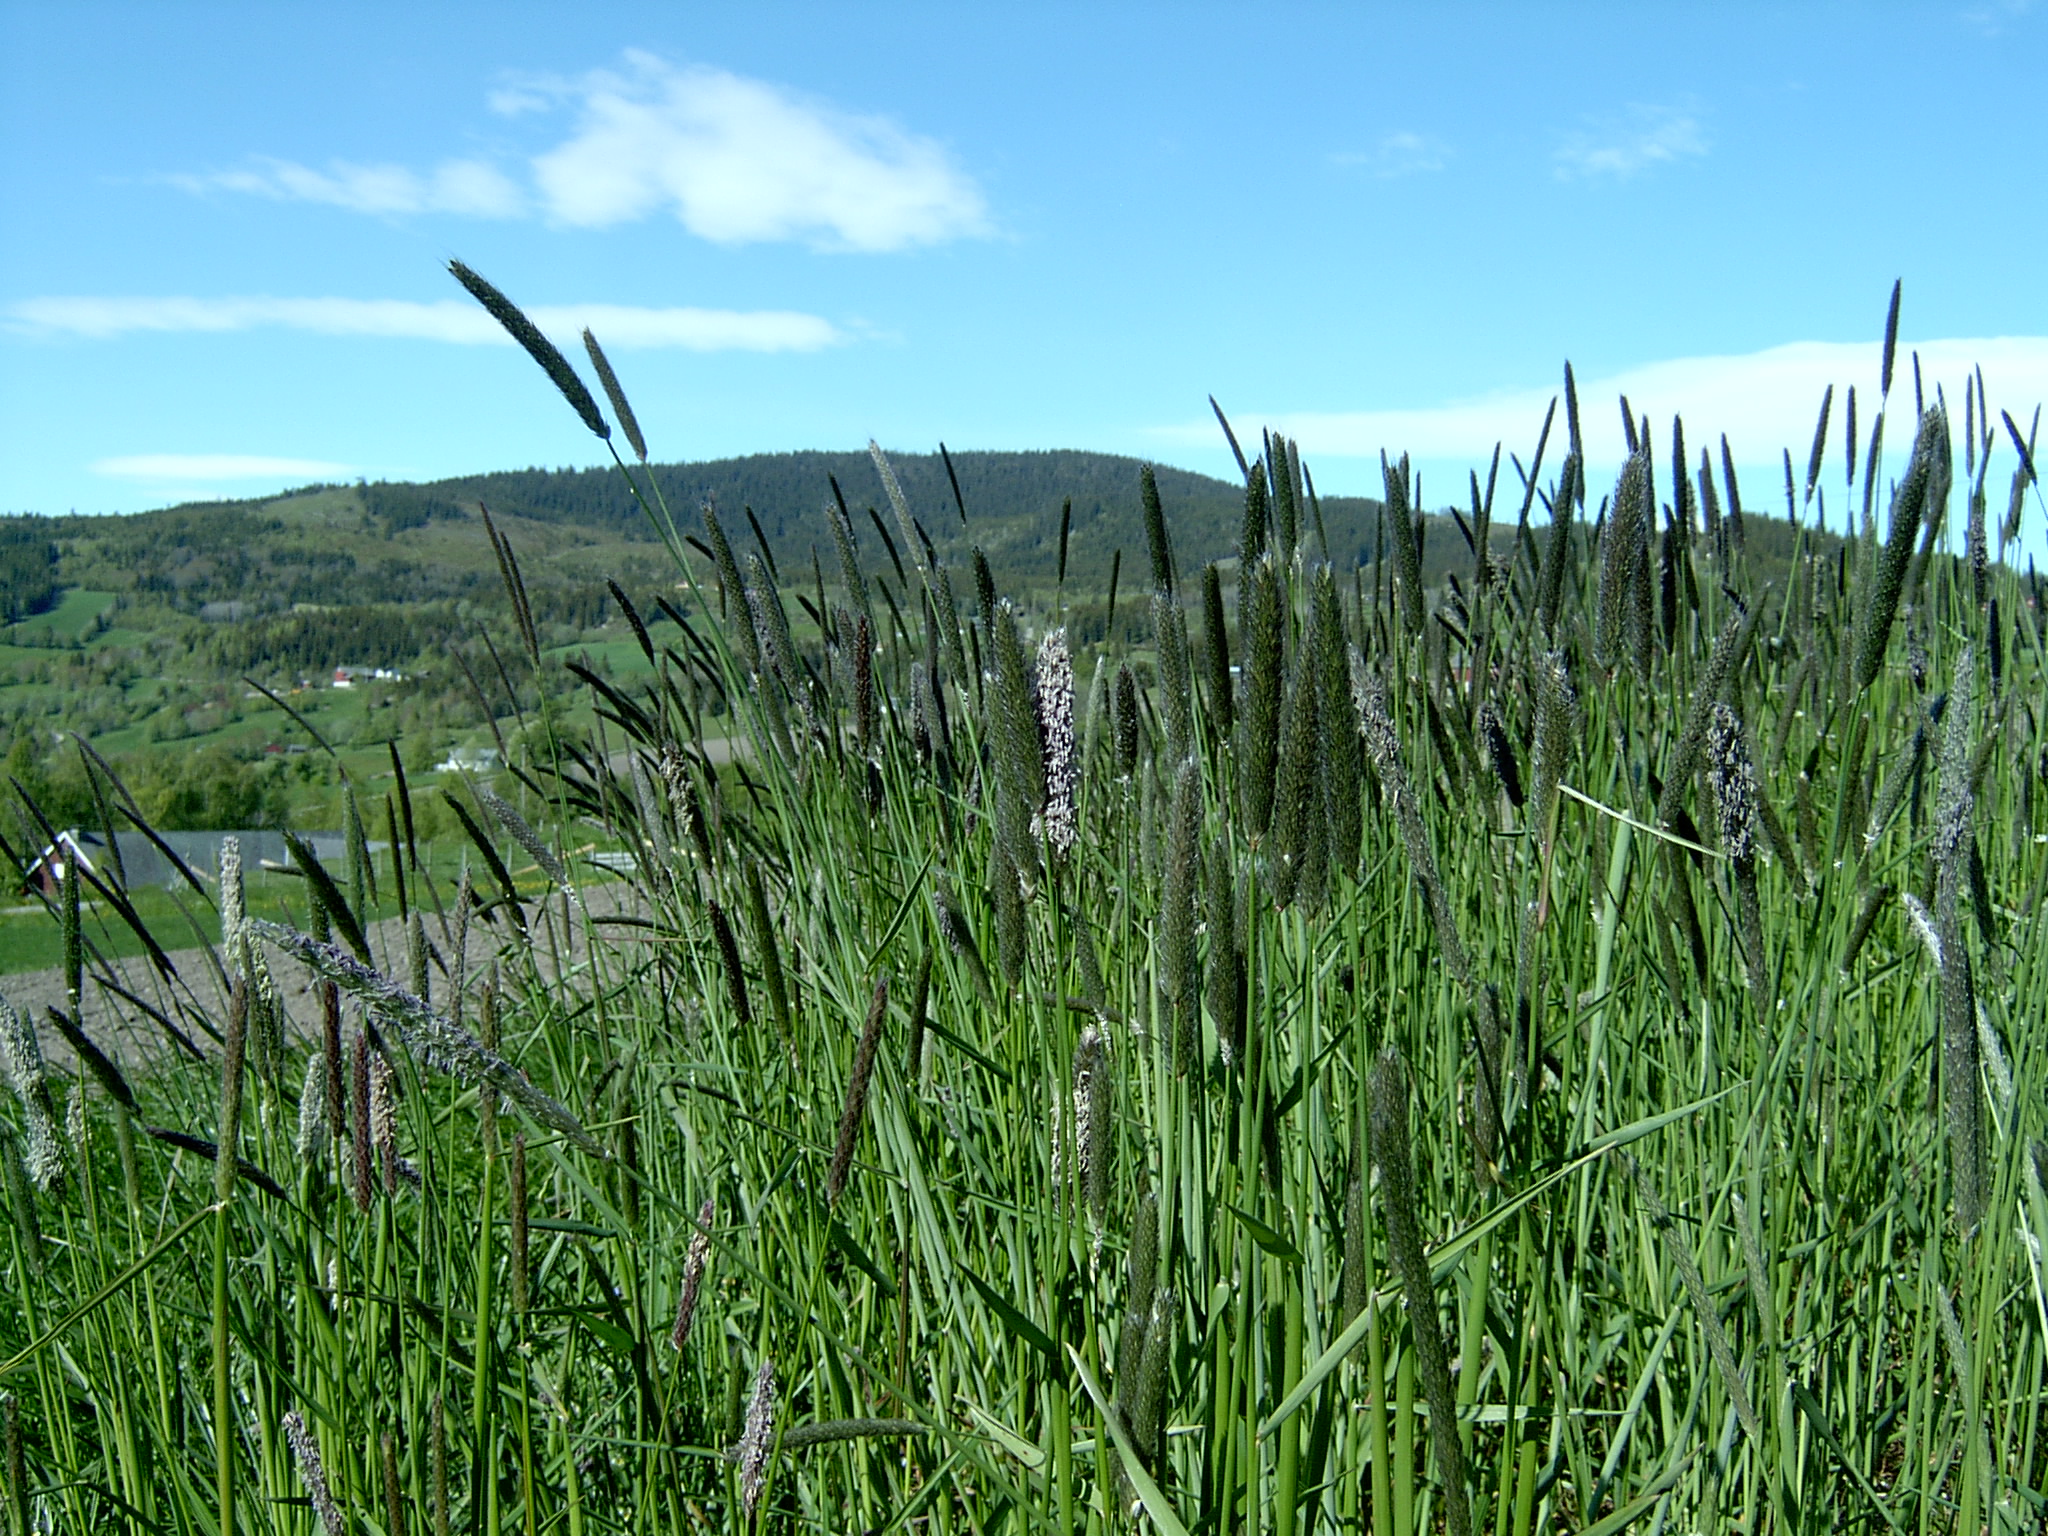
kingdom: Plantae
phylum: Tracheophyta
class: Liliopsida
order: Poales
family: Poaceae
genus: Alopecurus
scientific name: Alopecurus pratensis
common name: Meadow foxtail
